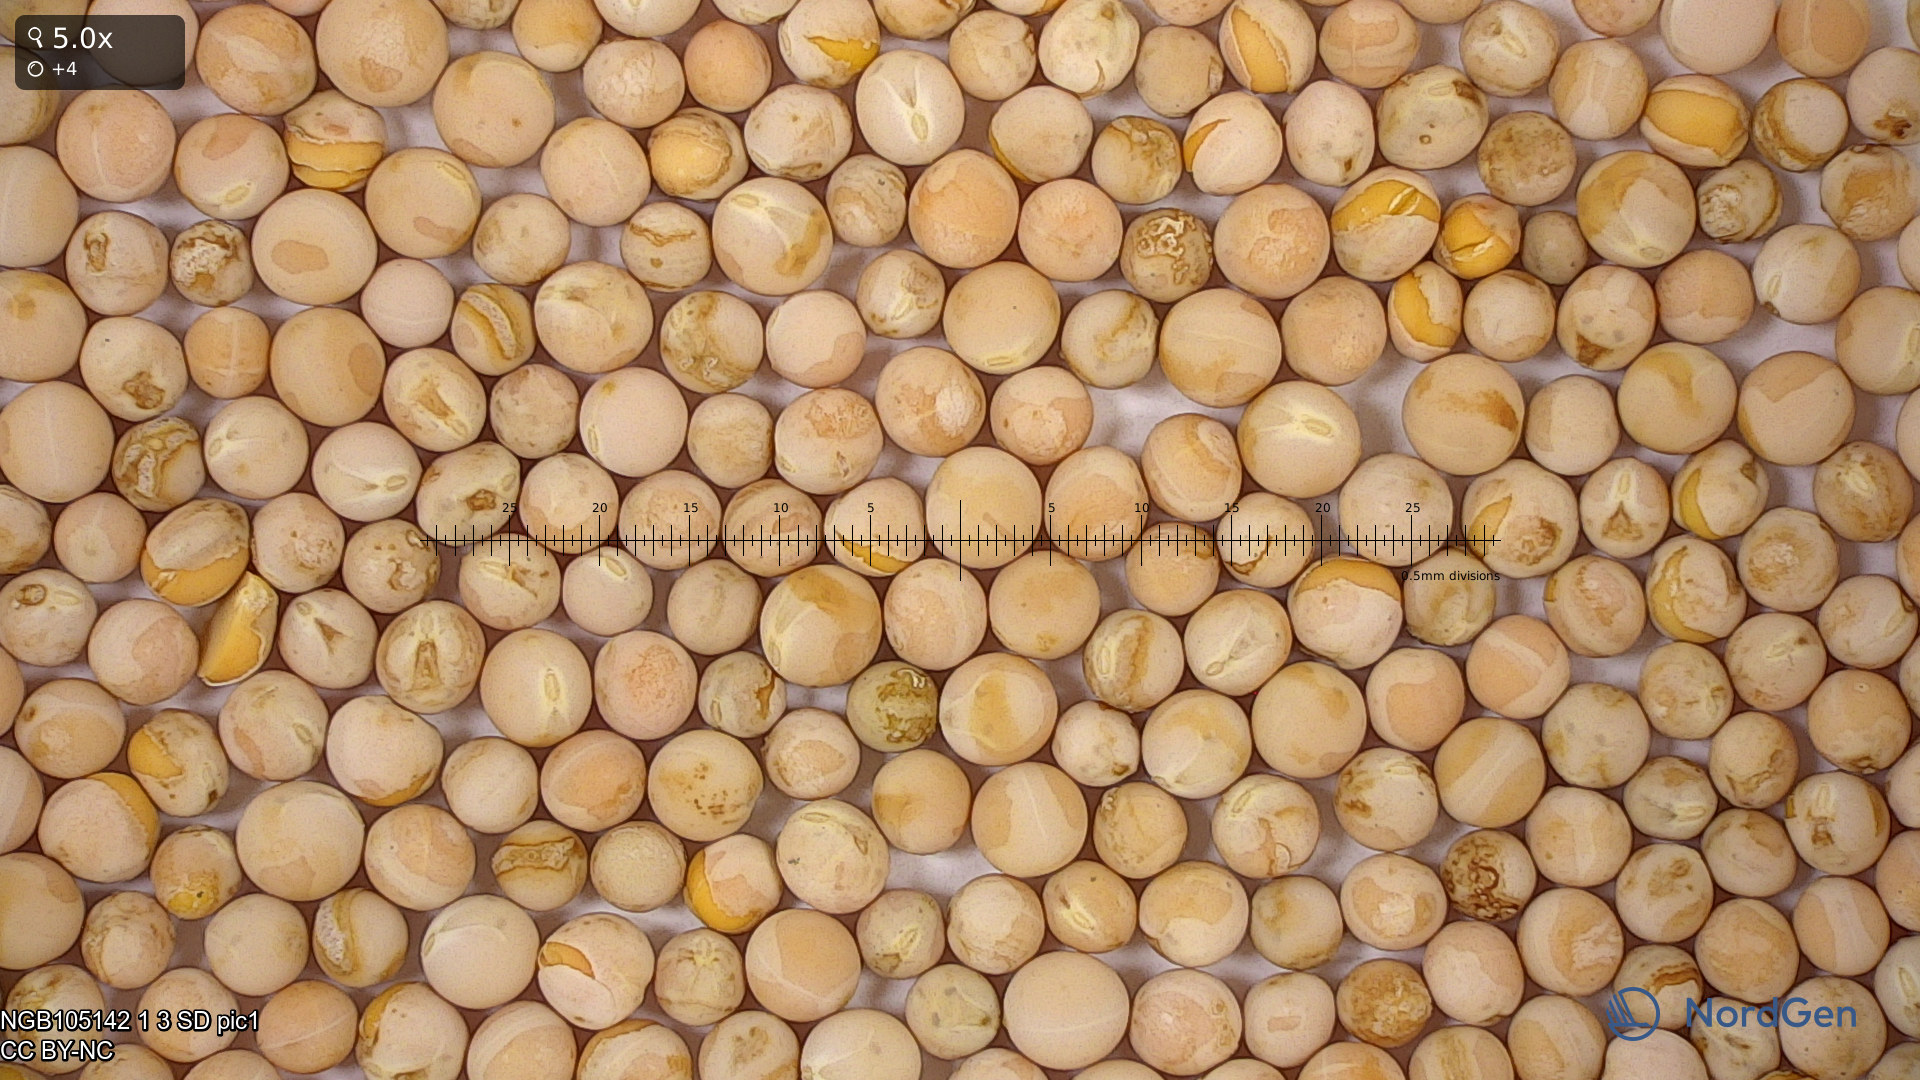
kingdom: Plantae
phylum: Tracheophyta
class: Magnoliopsida
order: Fabales
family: Fabaceae
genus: Lathyrus
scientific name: Lathyrus oleraceus
